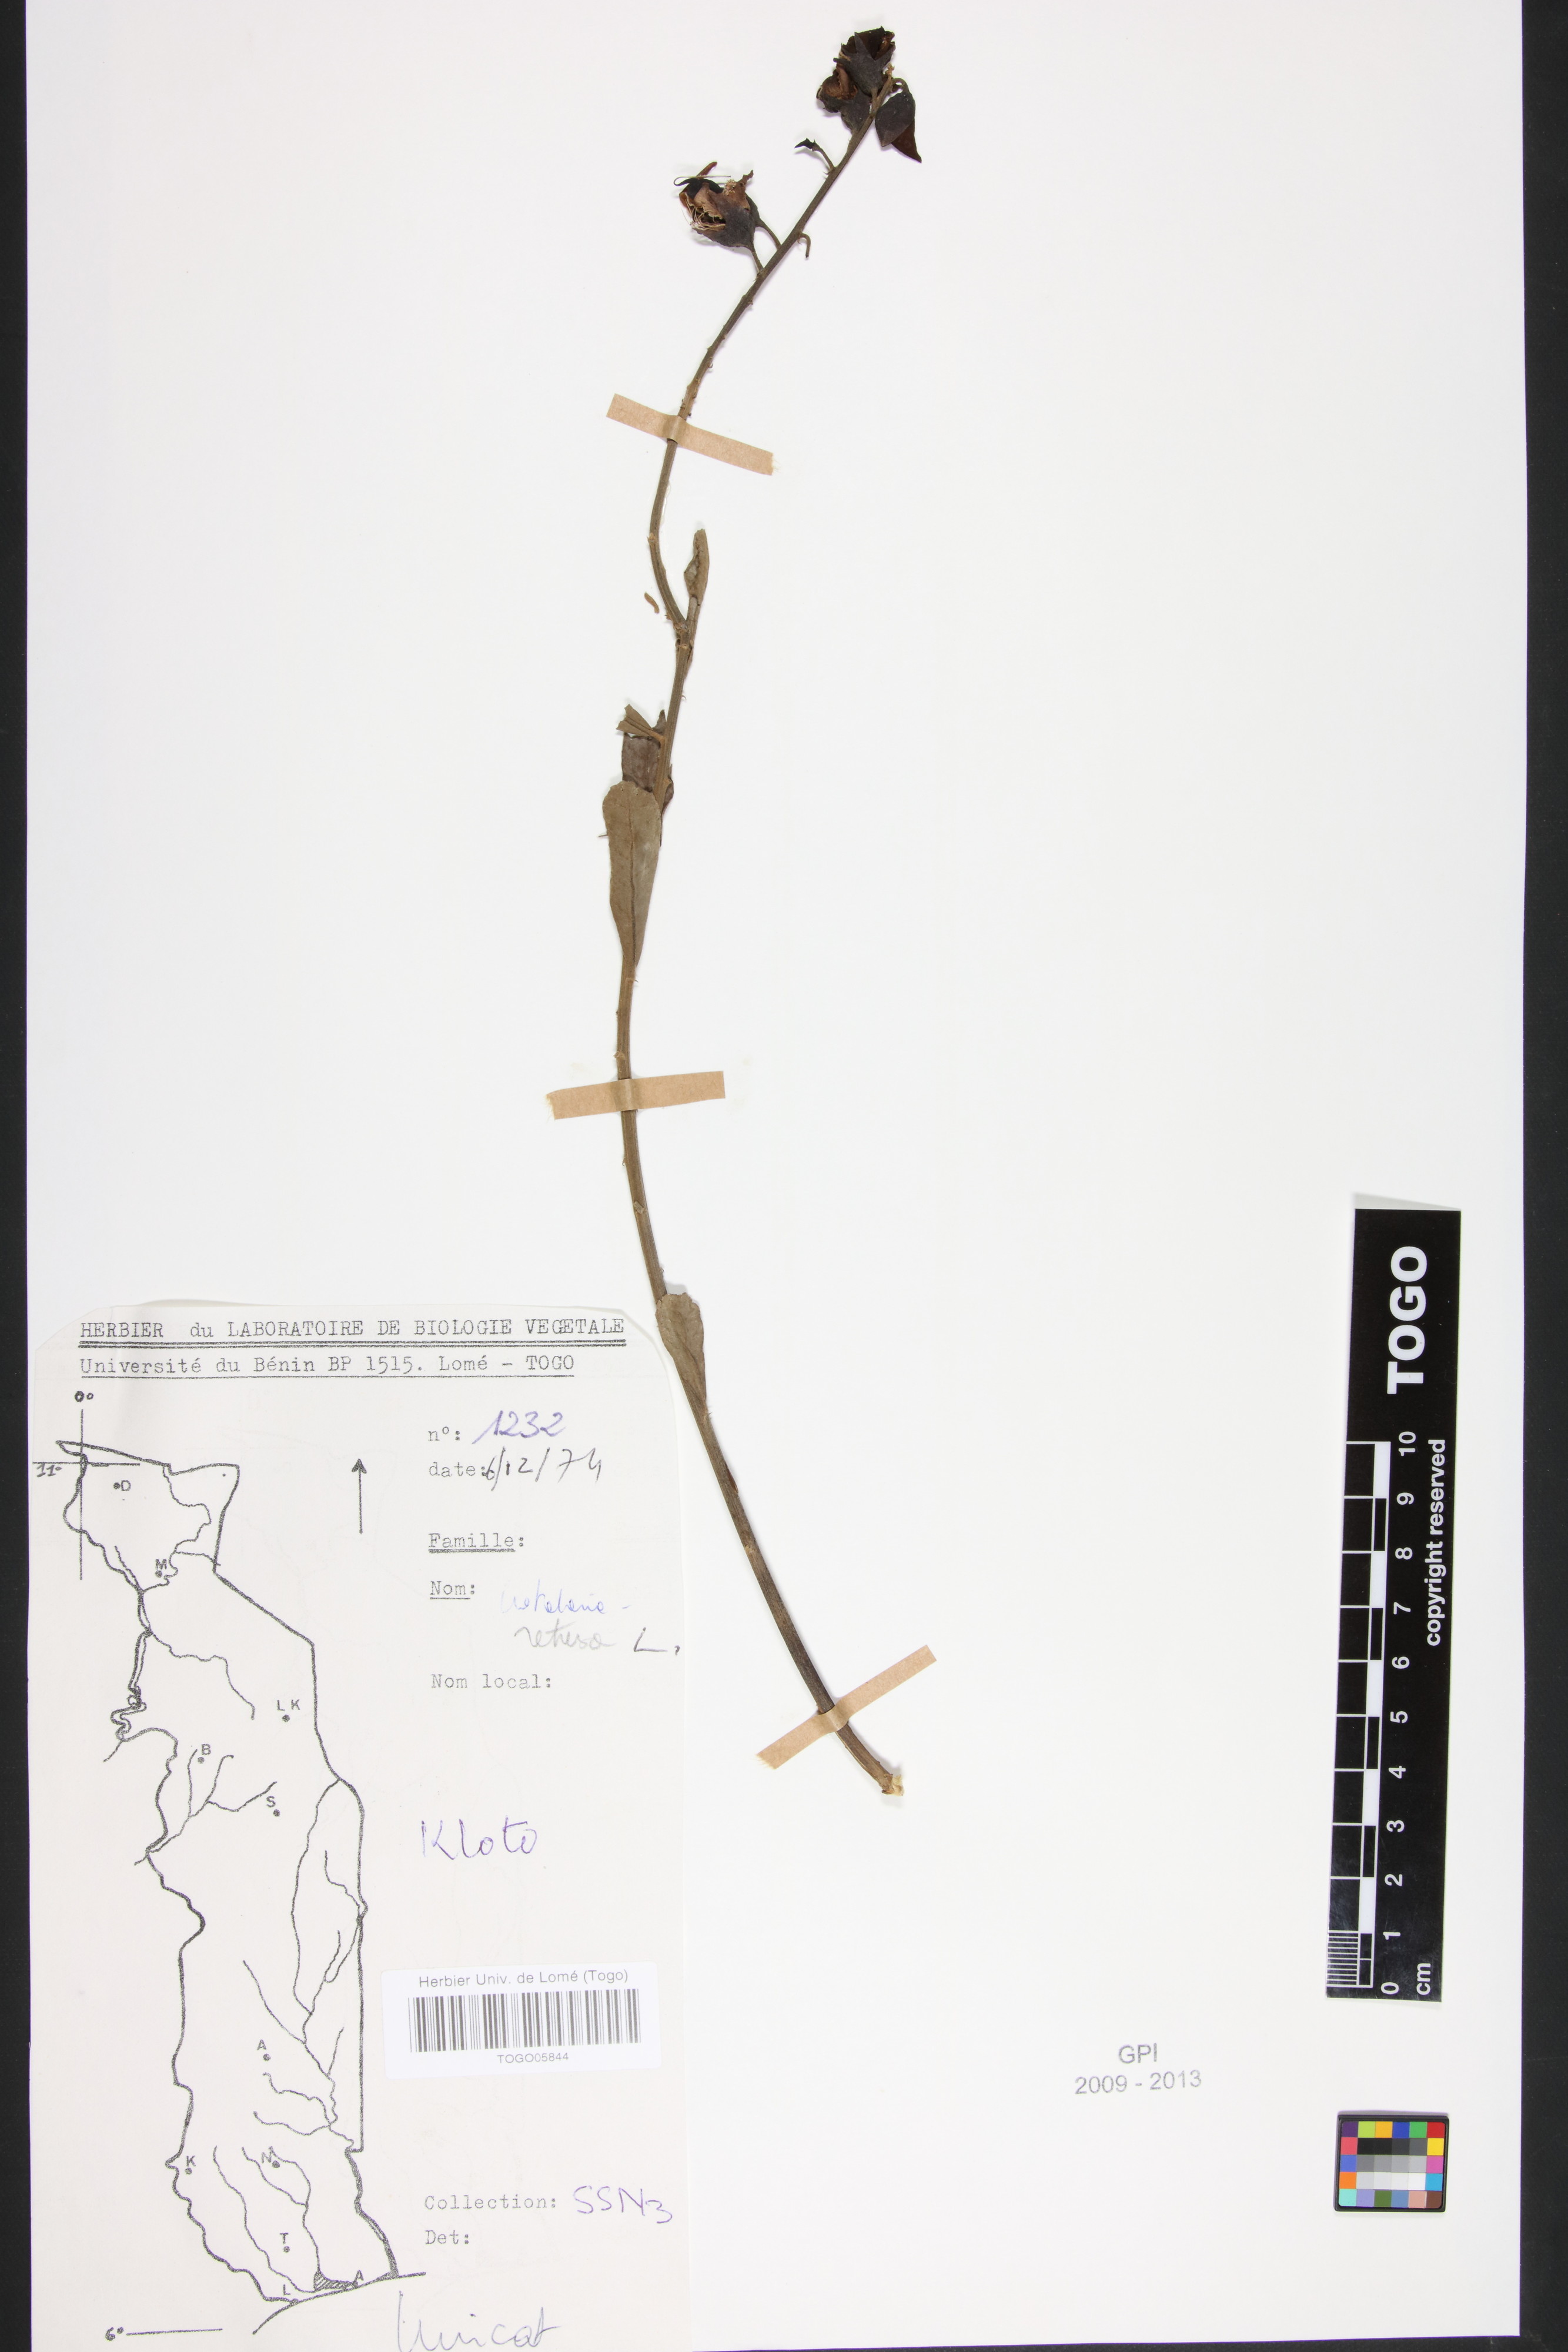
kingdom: Plantae
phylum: Tracheophyta
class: Magnoliopsida
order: Fabales
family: Fabaceae
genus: Crotalaria
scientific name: Crotalaria retusa
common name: Rattleweed
